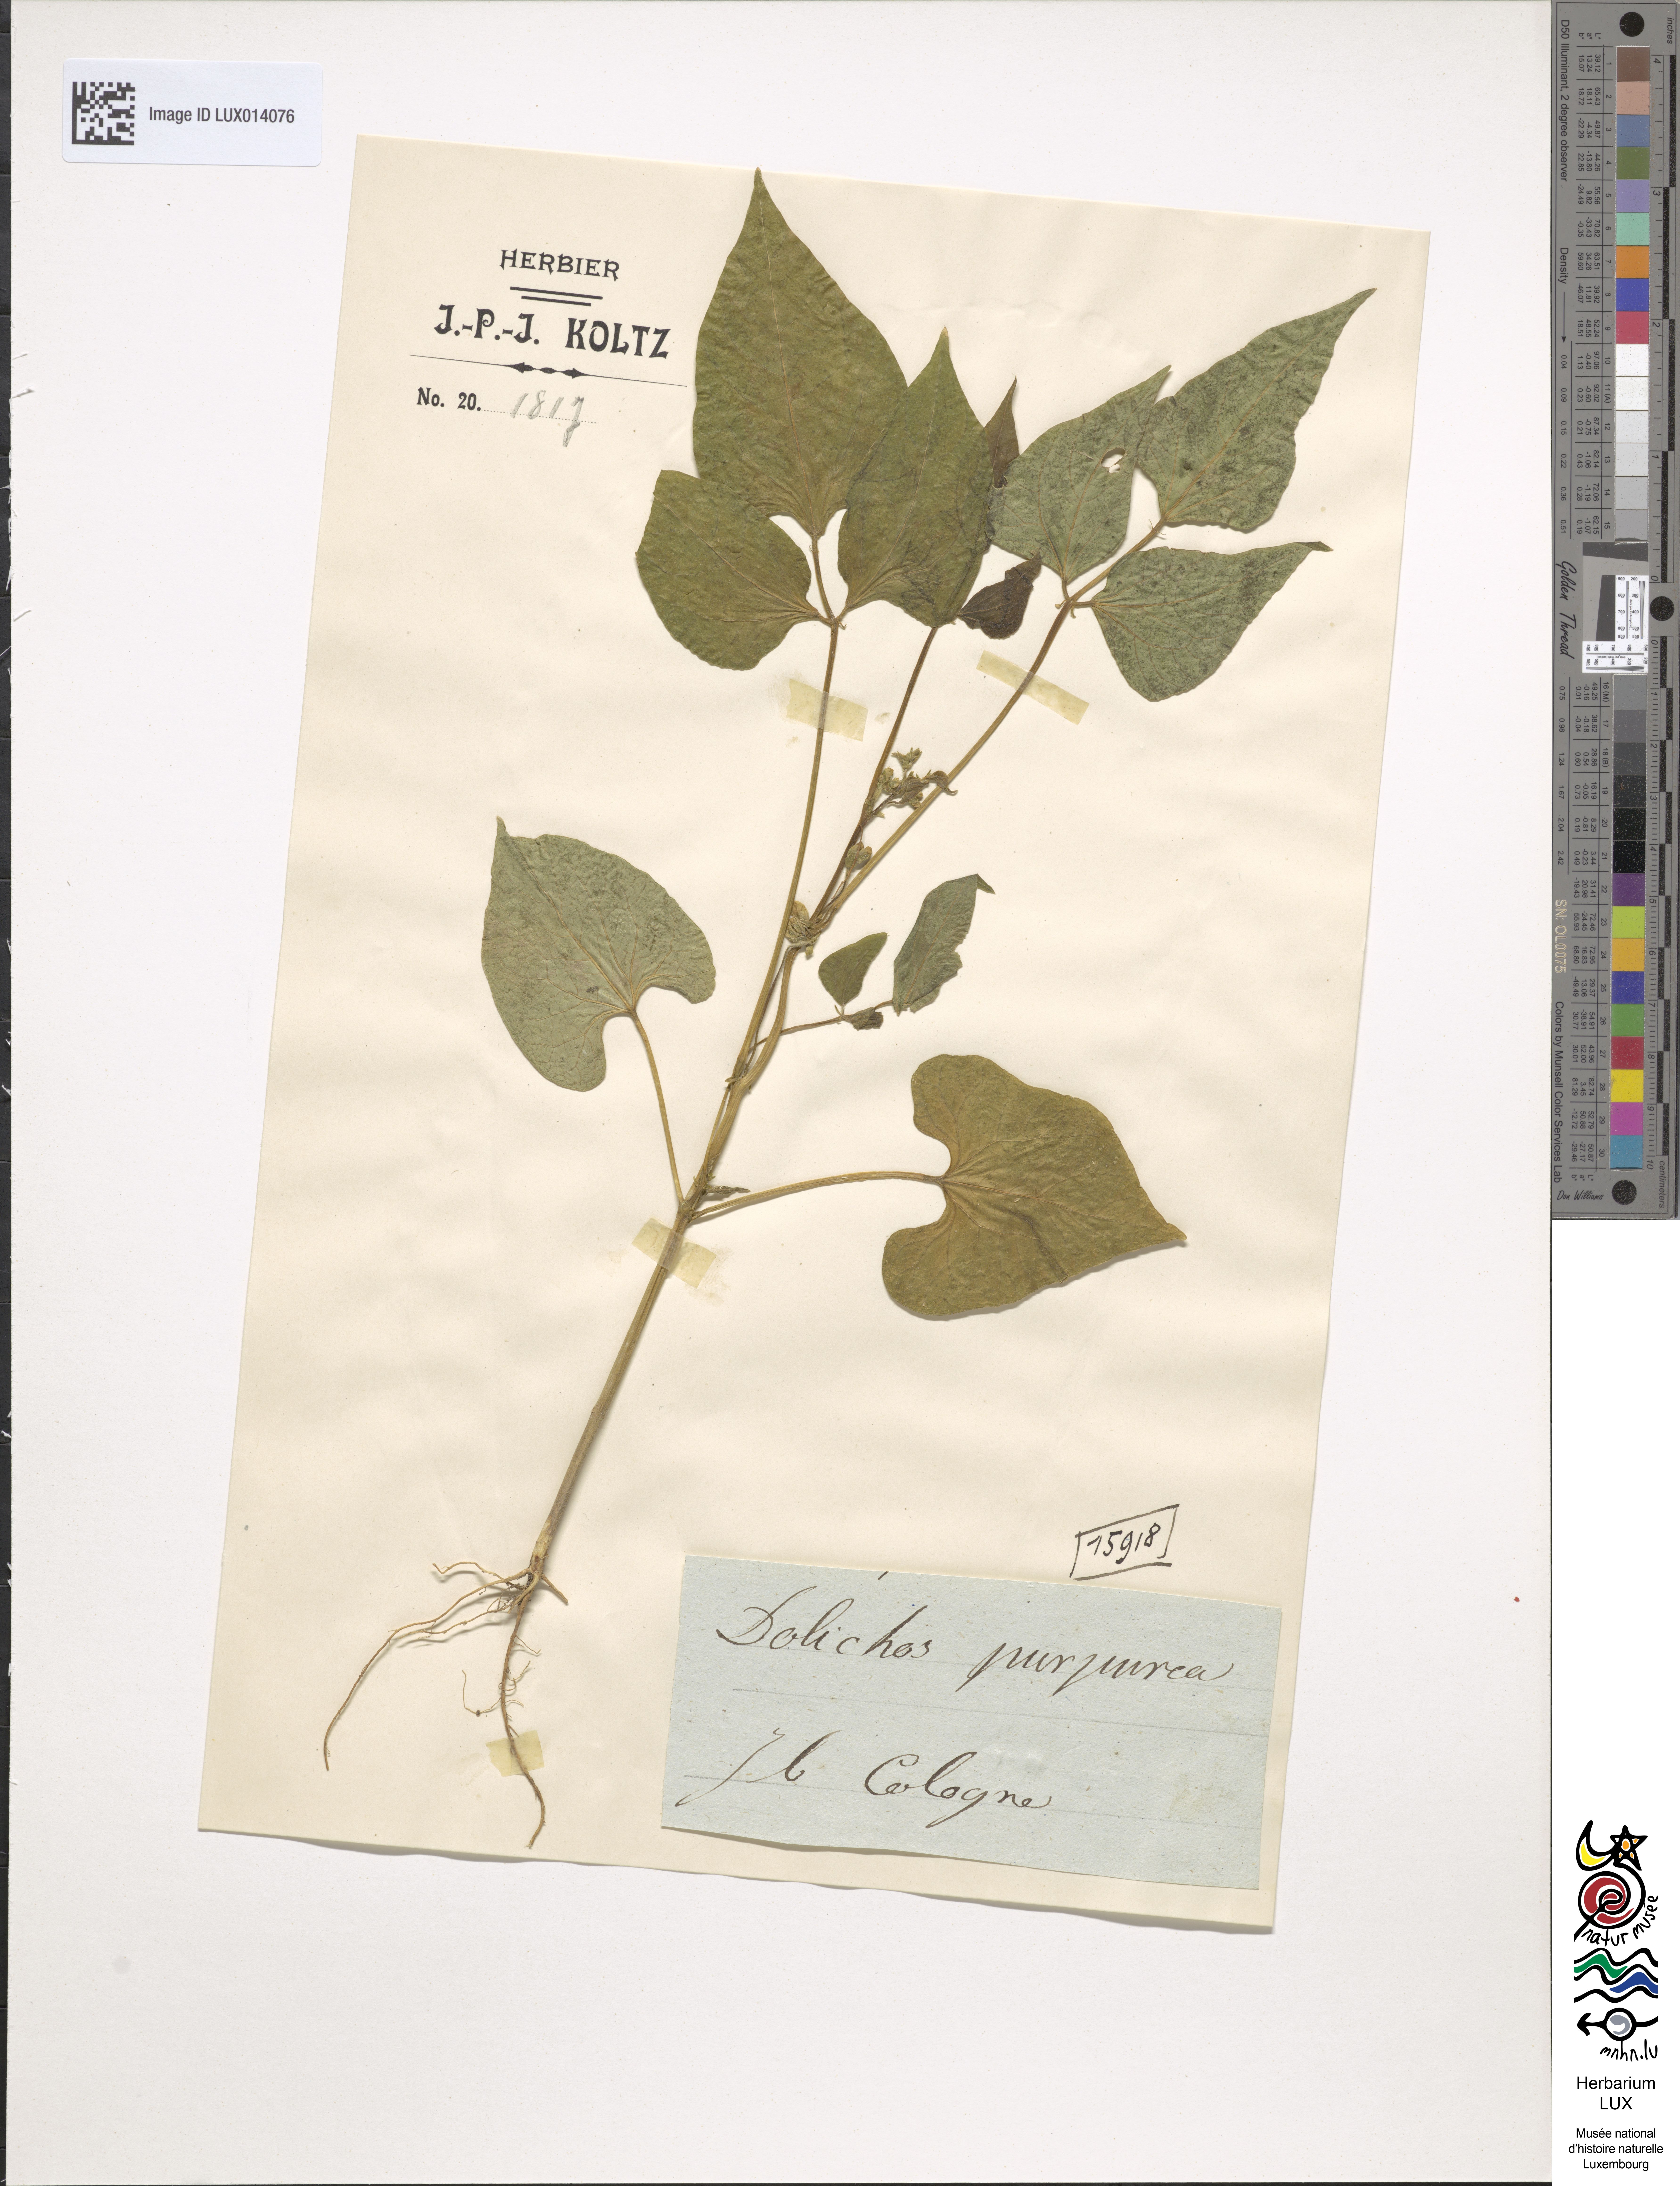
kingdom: Plantae
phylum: Tracheophyta
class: Magnoliopsida
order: Fabales
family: Fabaceae
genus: Lablab
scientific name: Lablab purpureus
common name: Lablab-bean
